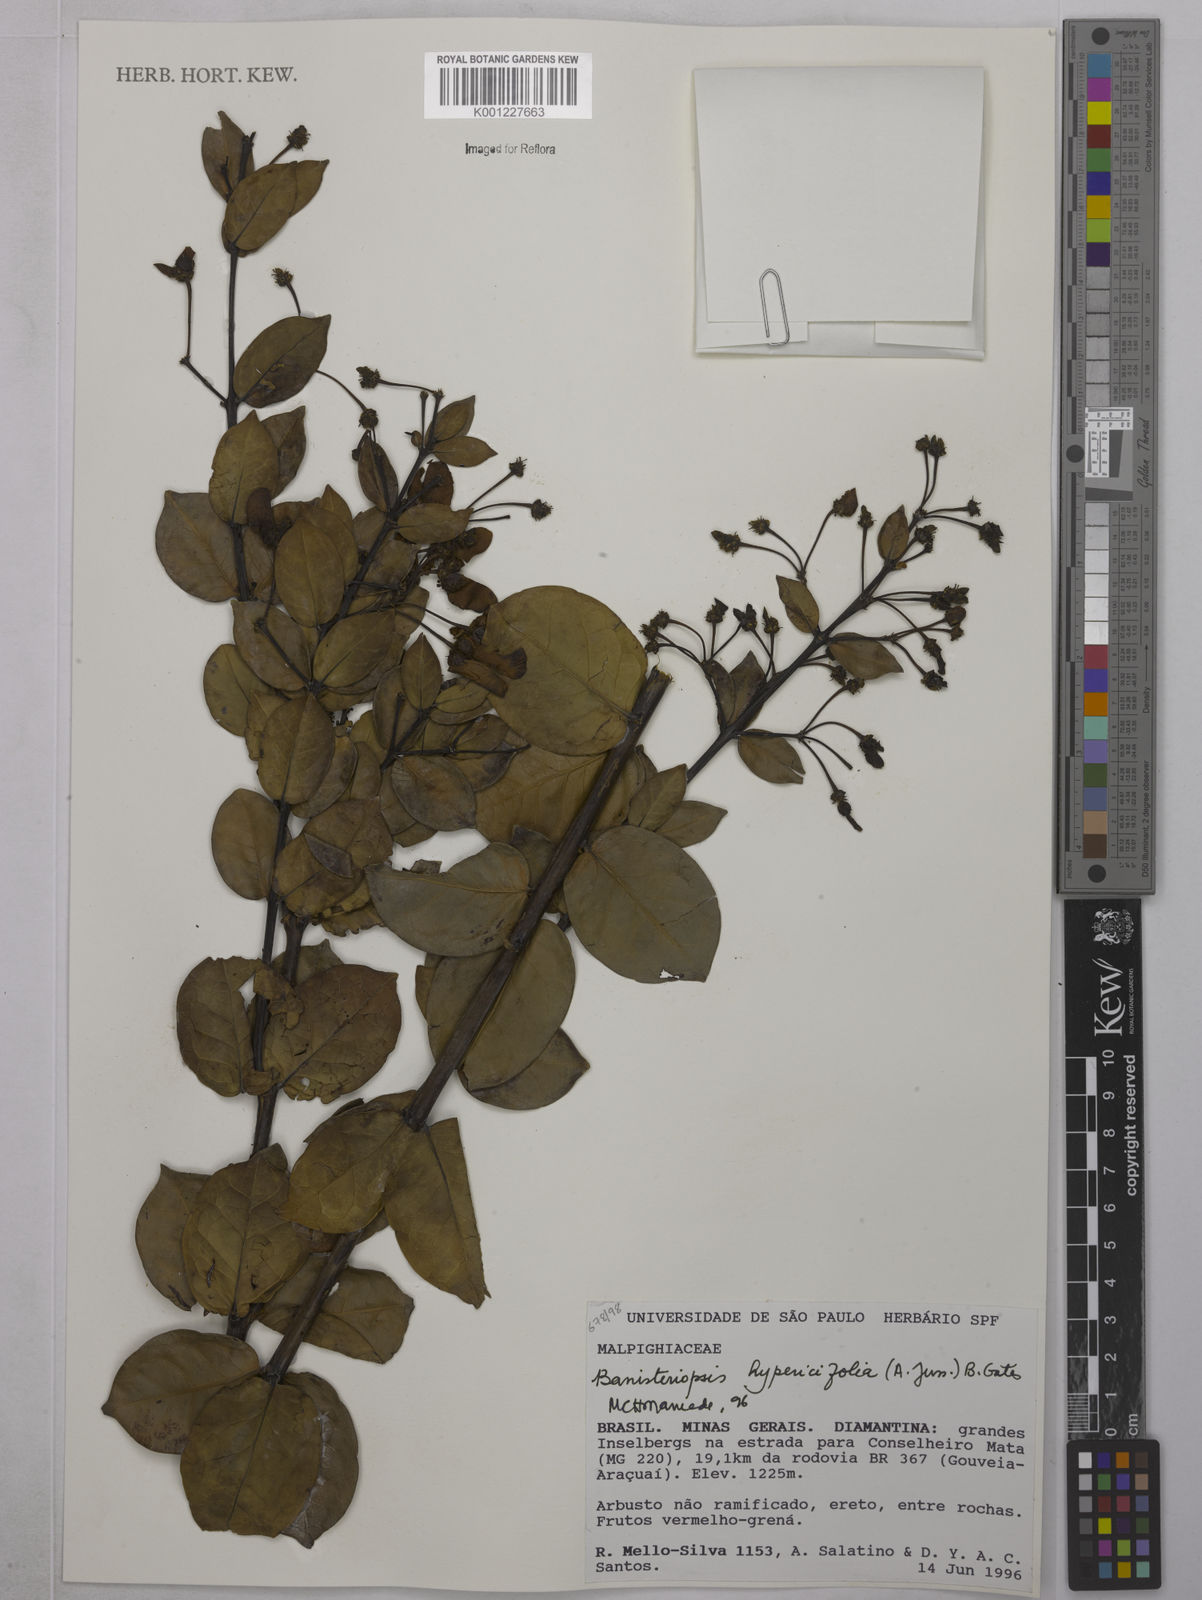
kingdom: Plantae
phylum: Tracheophyta
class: Magnoliopsida
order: Malpighiales
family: Malpighiaceae
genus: Diplopterys
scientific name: Diplopterys hypericifolia
